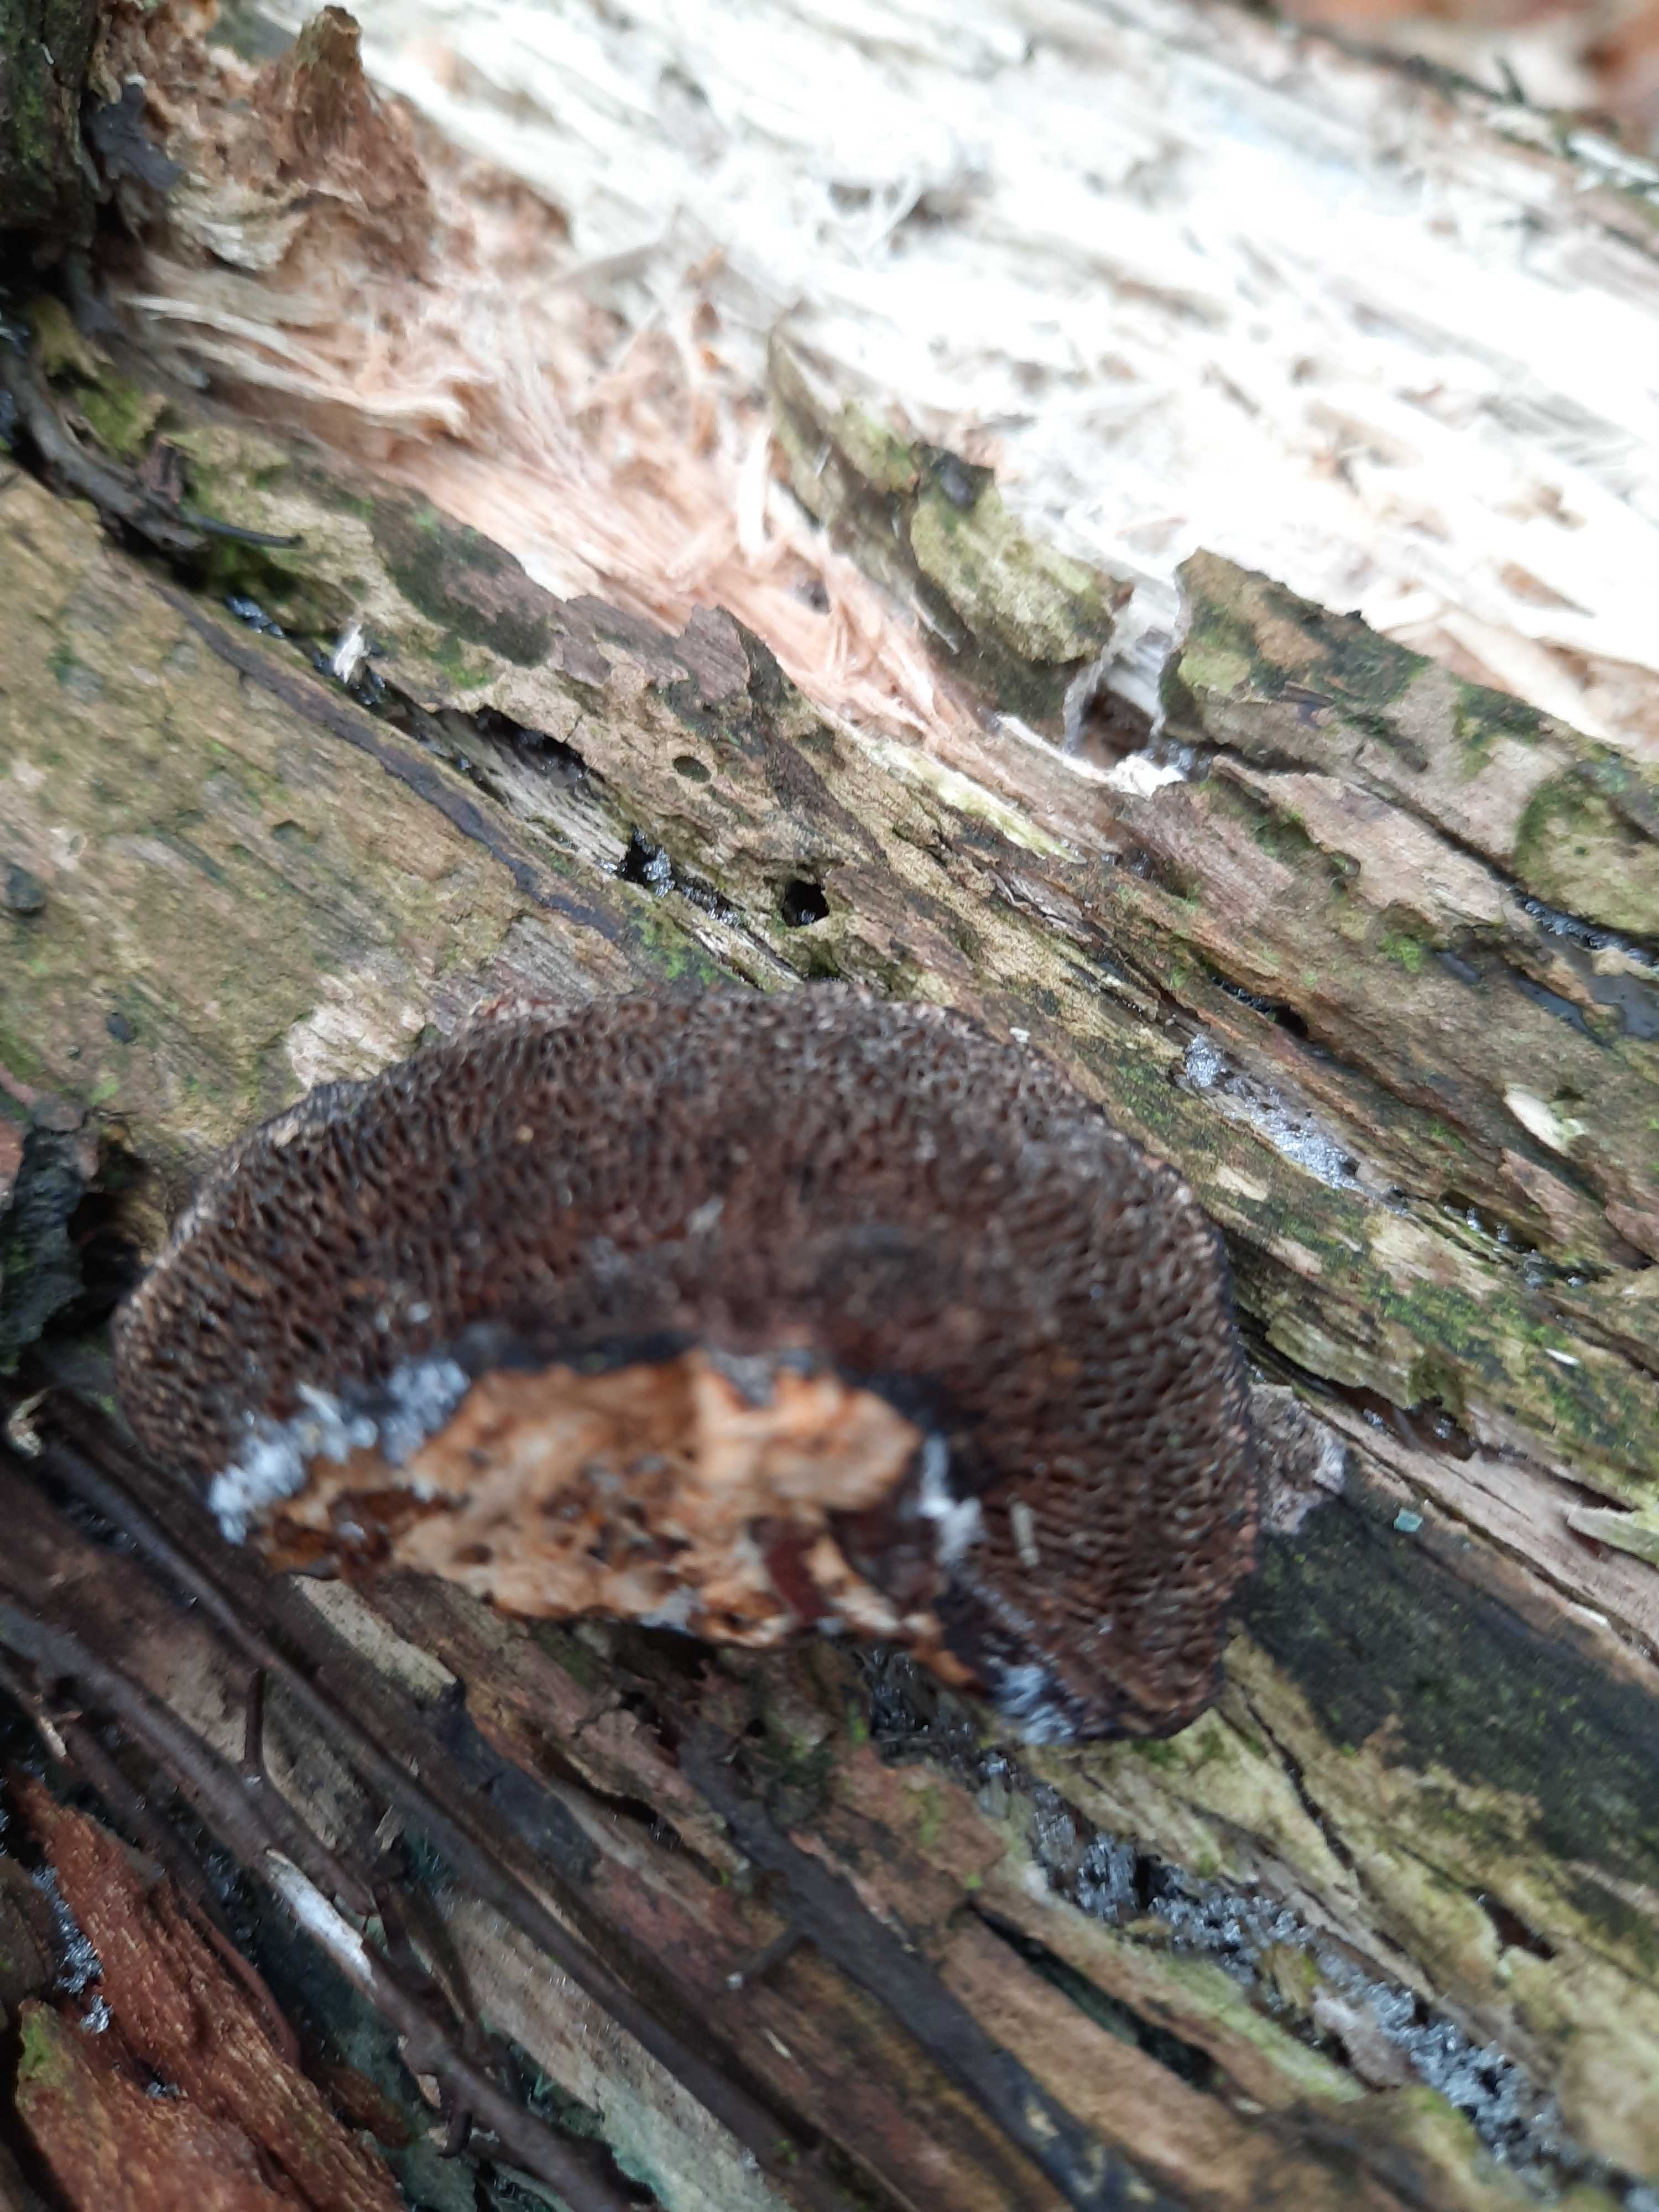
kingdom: Fungi
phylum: Basidiomycota
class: Agaricomycetes
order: Polyporales
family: Polyporaceae
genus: Daedaleopsis
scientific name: Daedaleopsis confragosa
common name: rødmende læderporesvamp
